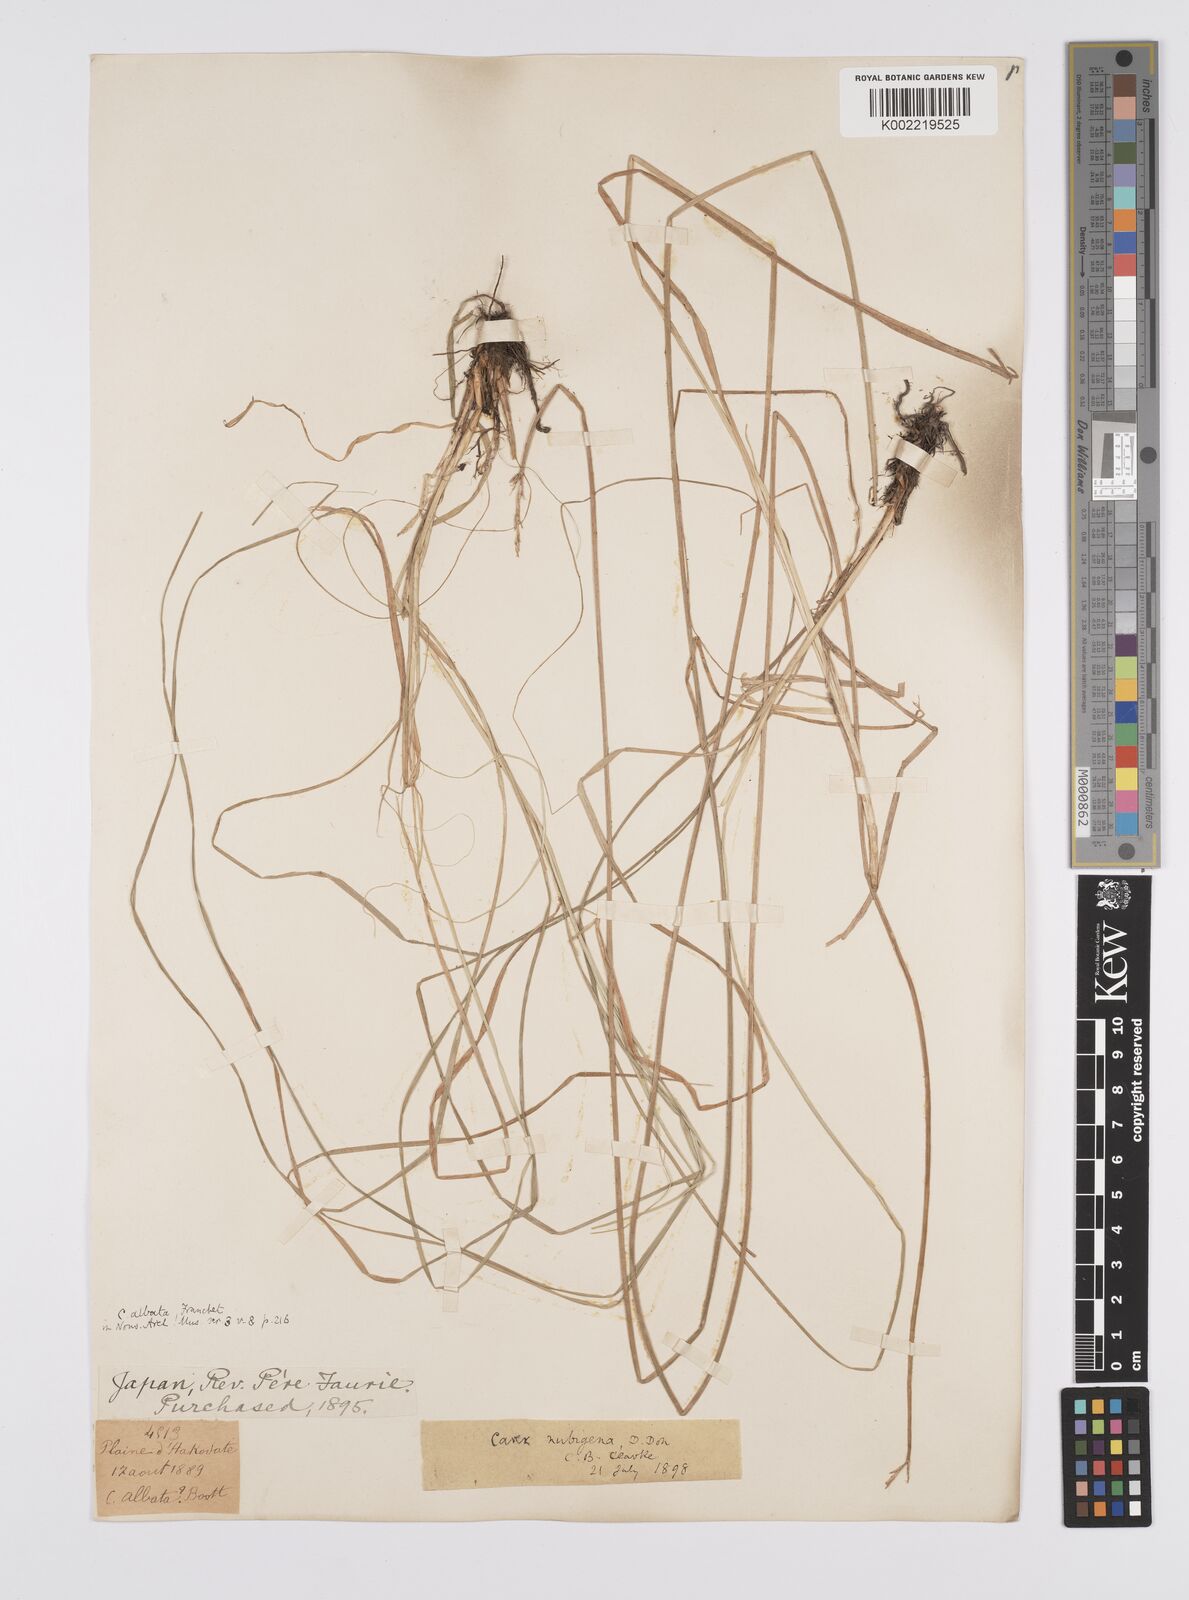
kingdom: Plantae
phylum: Tracheophyta
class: Liliopsida
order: Poales
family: Cyperaceae
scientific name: Cyperaceae
